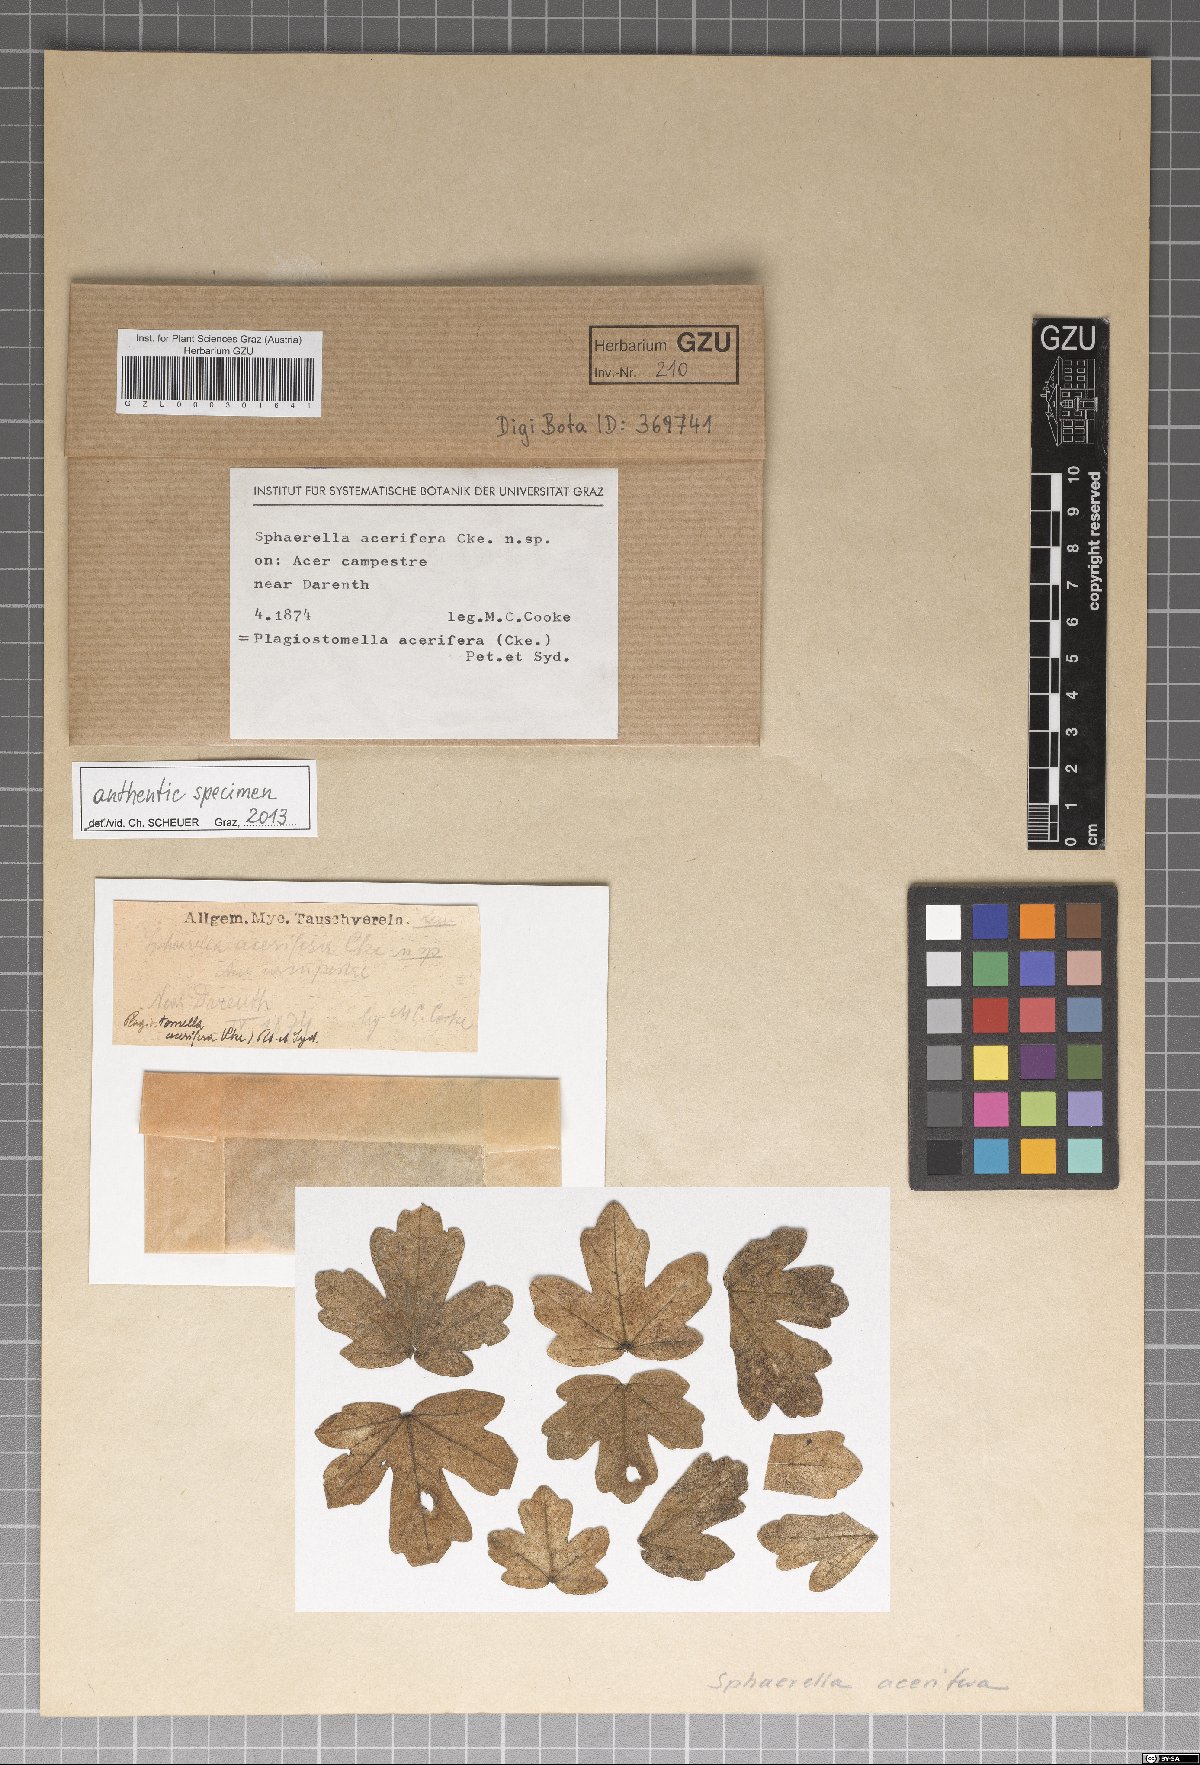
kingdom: Fungi
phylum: Ascomycota
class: Sordariomycetes
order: Diaporthales
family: Valsaceae
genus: Apioplagiostoma
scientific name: Apioplagiostoma aceriferum
